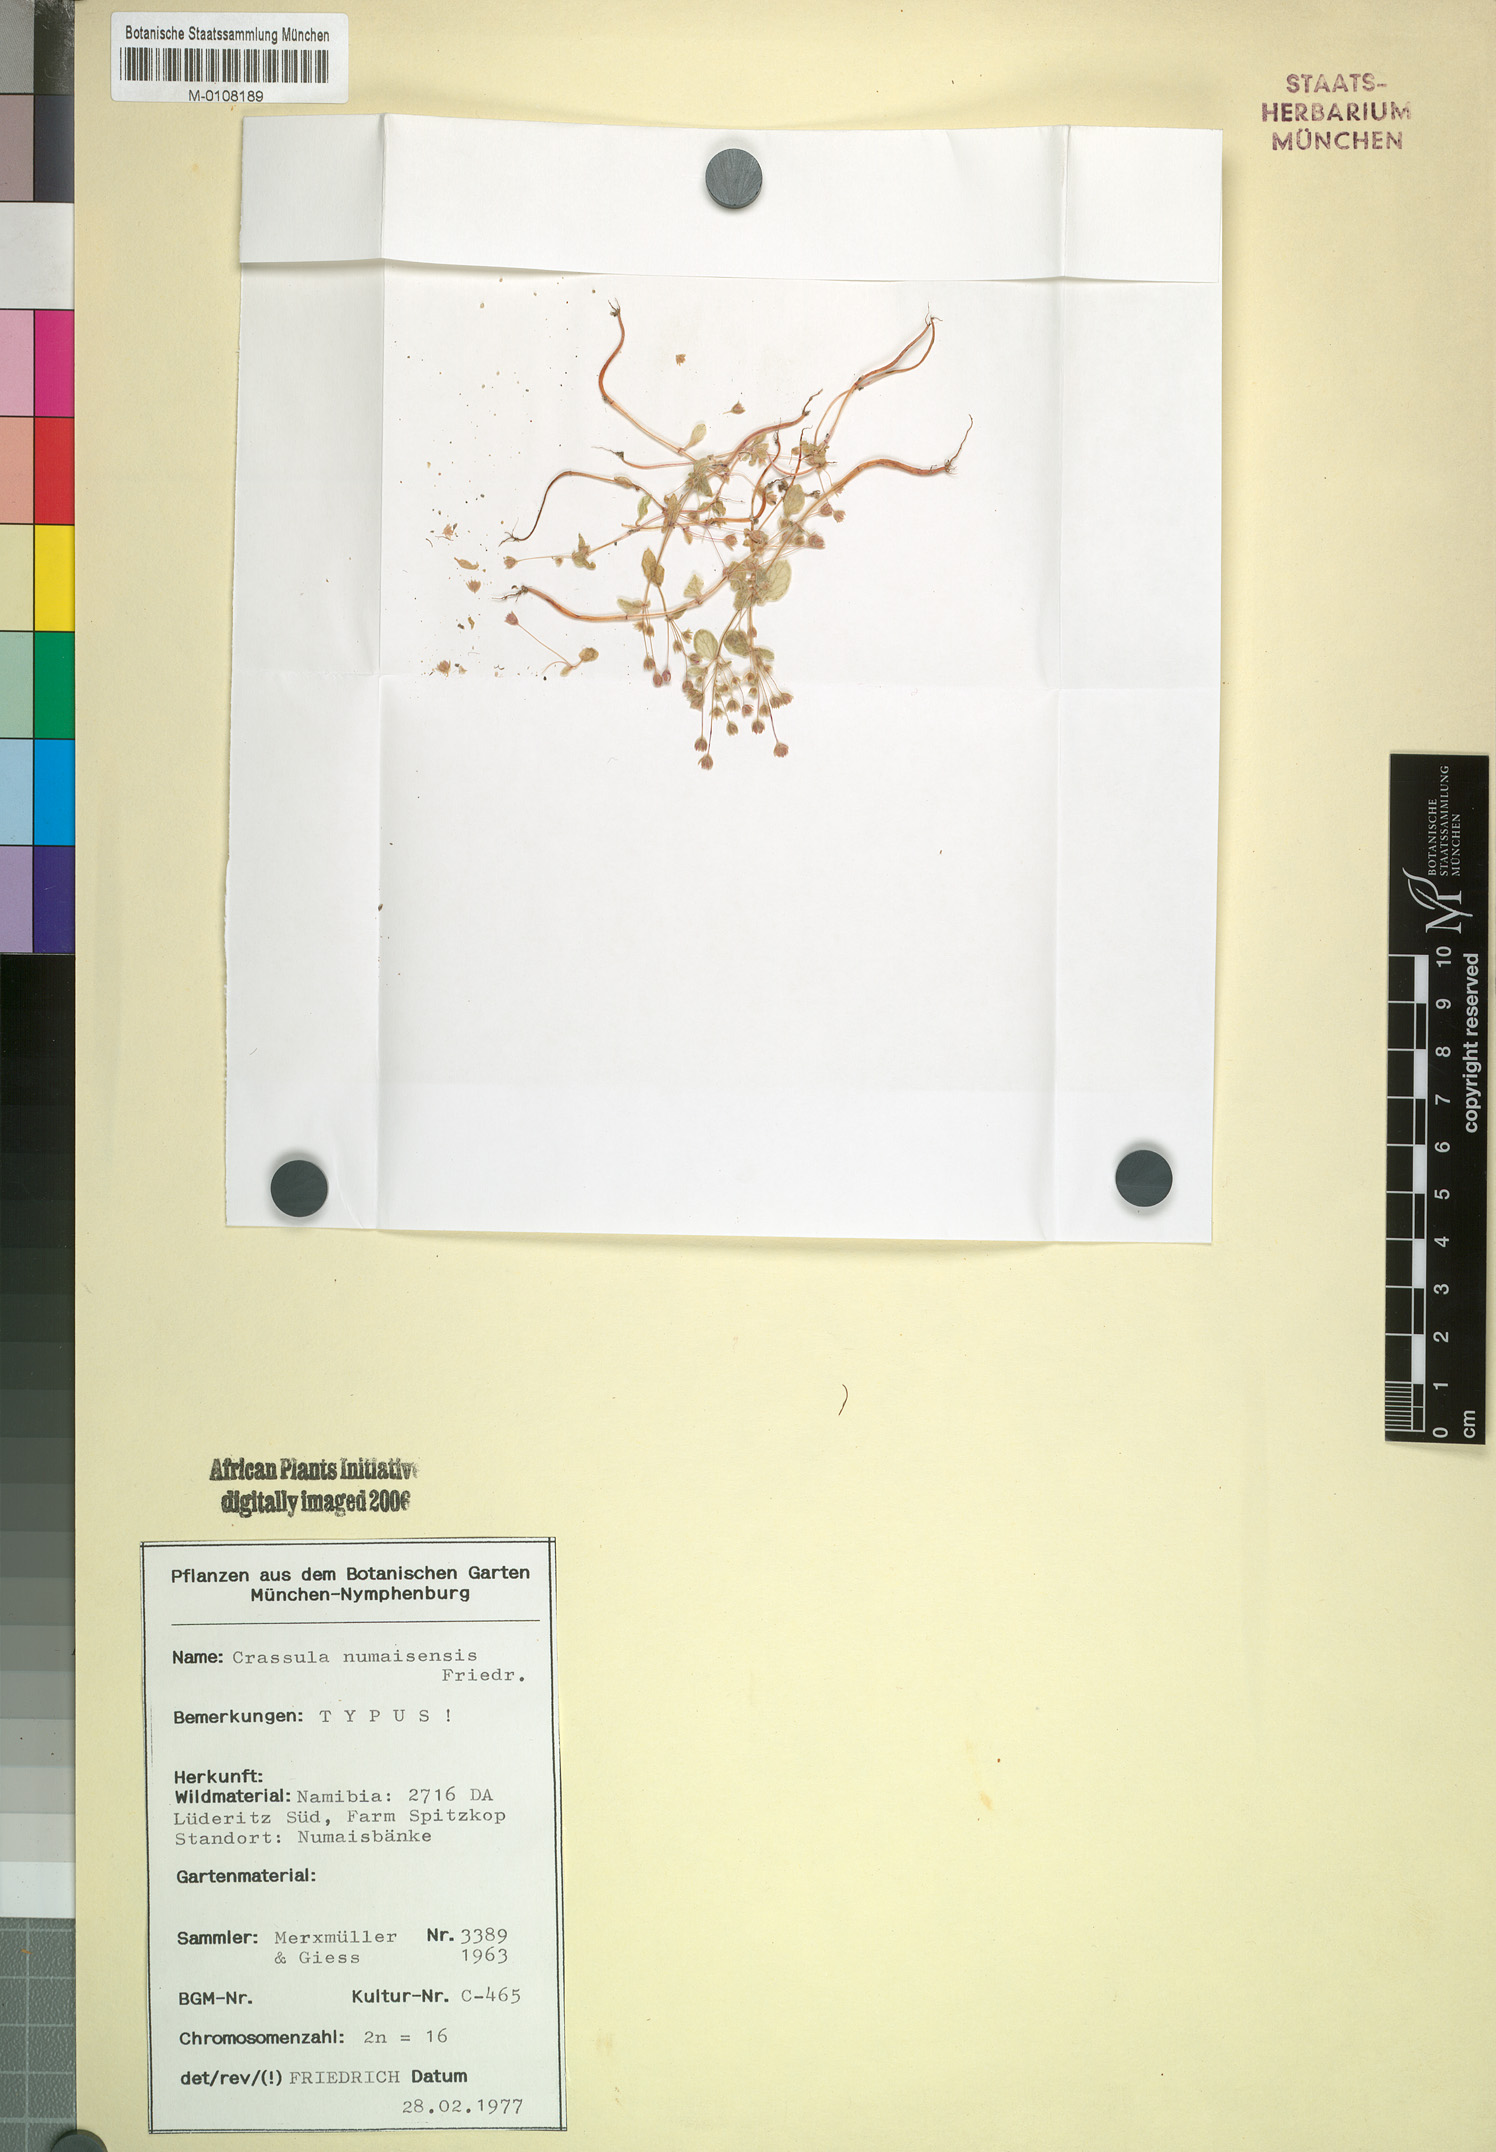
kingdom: Plantae
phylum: Tracheophyta
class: Magnoliopsida
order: Saxifragales
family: Crassulaceae
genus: Crassula
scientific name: Crassula numaisensis
